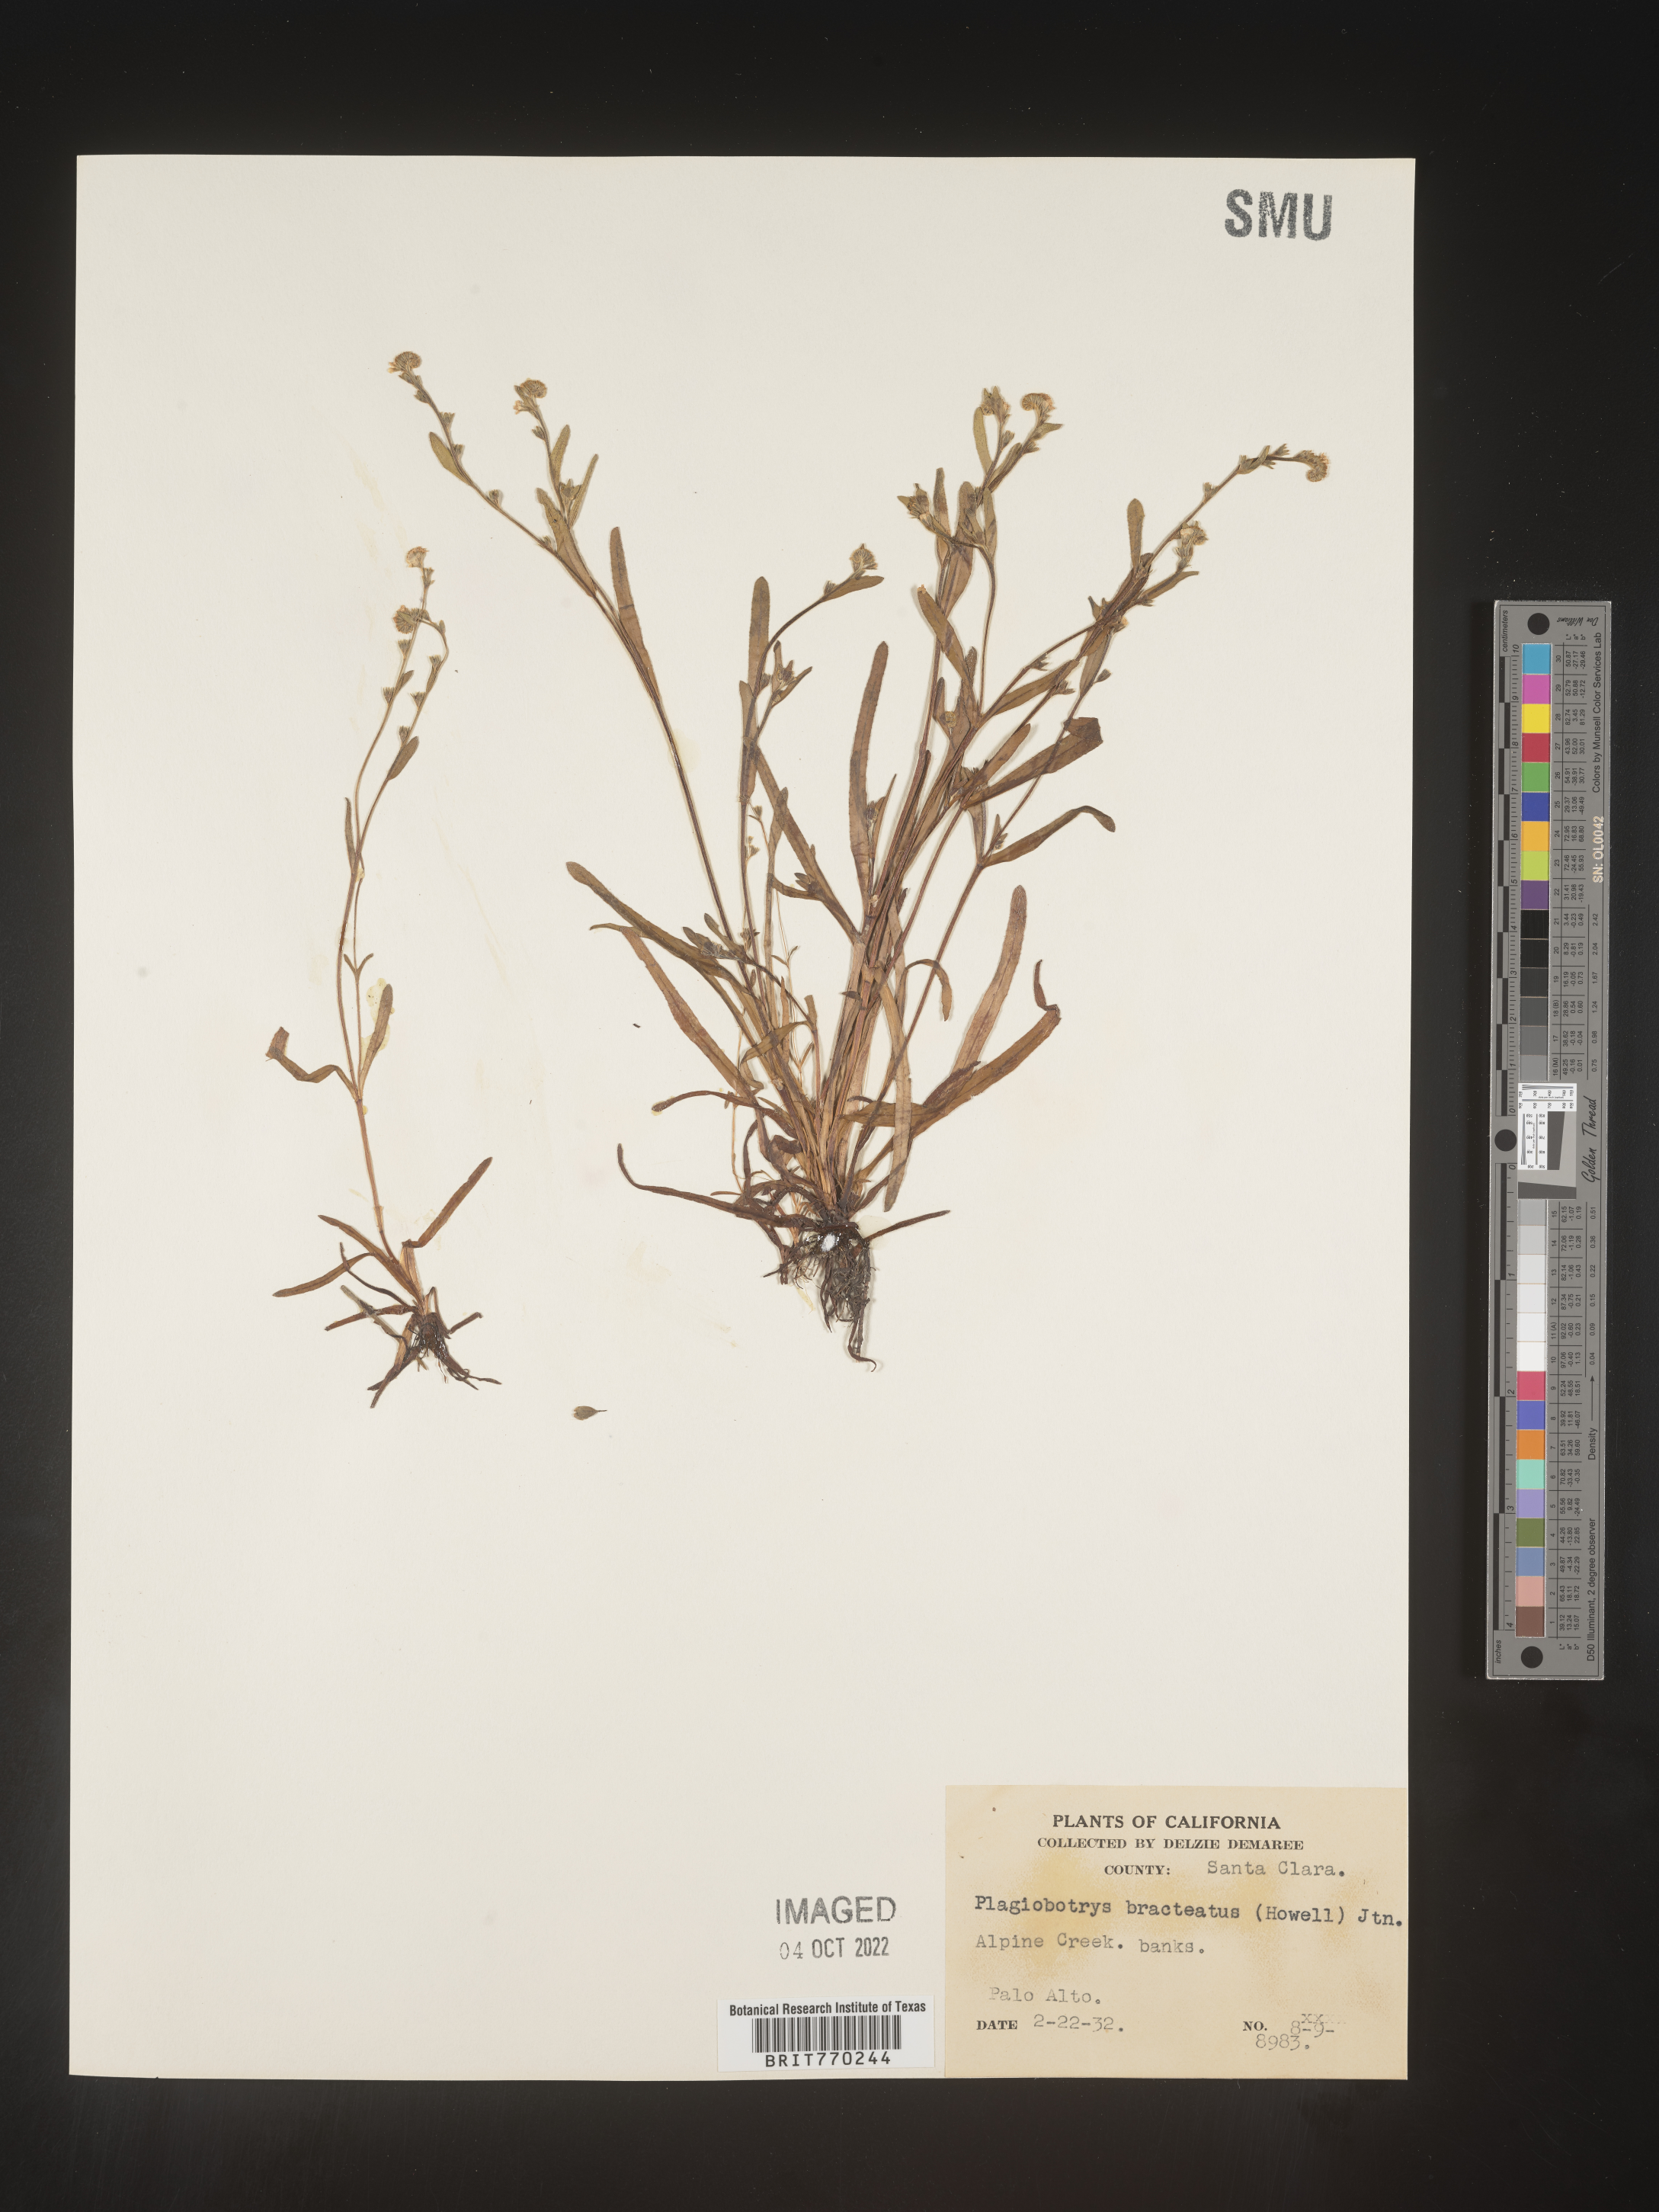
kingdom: Plantae
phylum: Tracheophyta
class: Magnoliopsida
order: Boraginales
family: Boraginaceae
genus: Plagiobothrys
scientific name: Plagiobothrys
